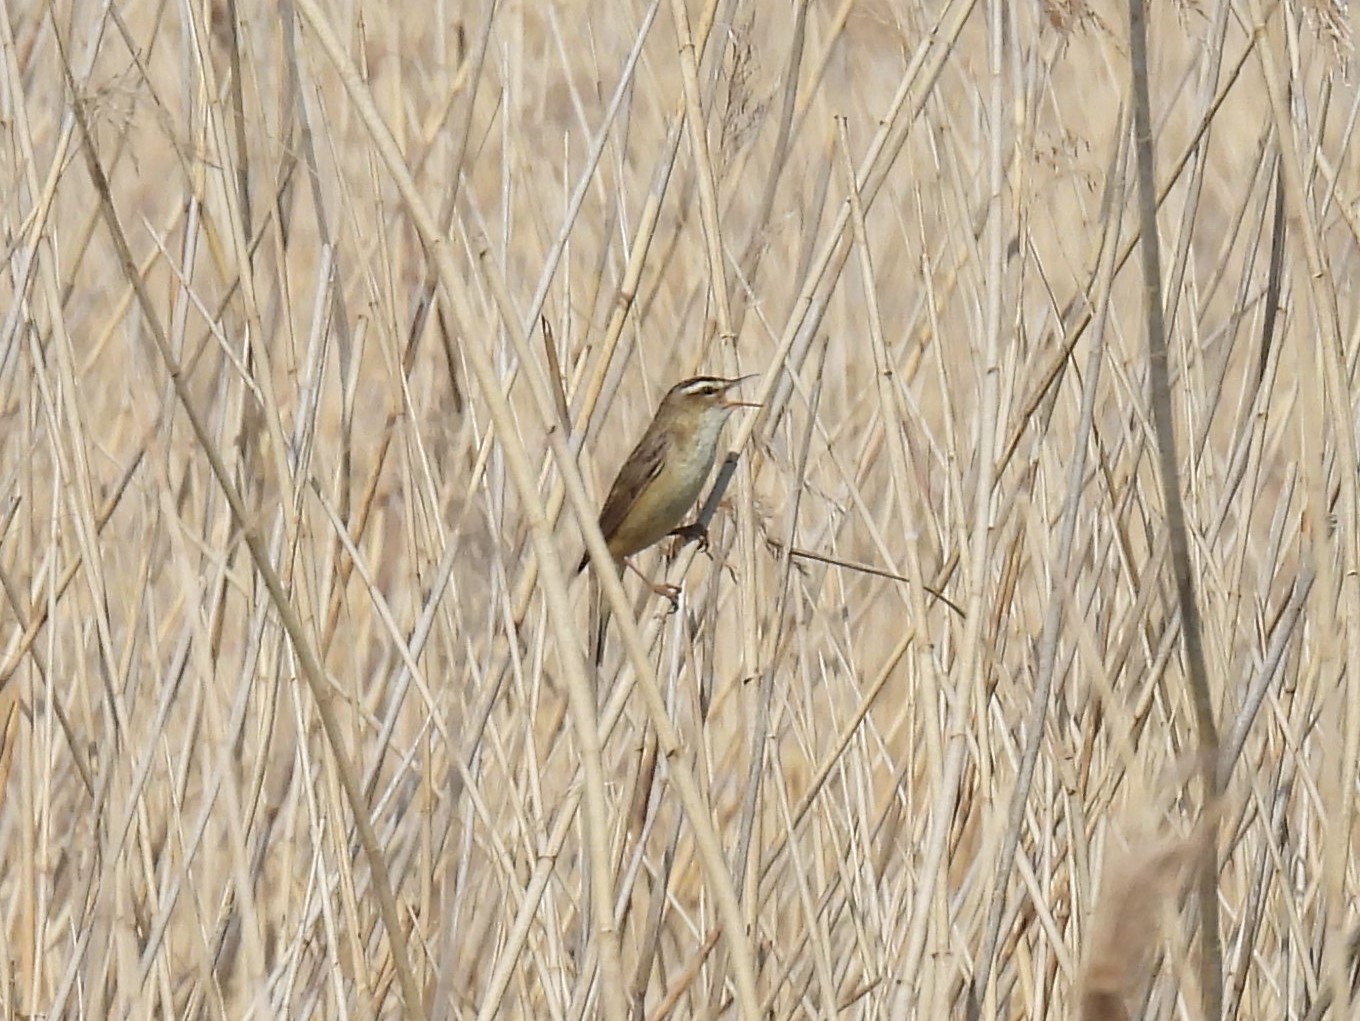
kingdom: Animalia
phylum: Chordata
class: Aves
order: Passeriformes
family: Acrocephalidae
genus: Acrocephalus
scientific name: Acrocephalus schoenobaenus
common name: Sivsanger
